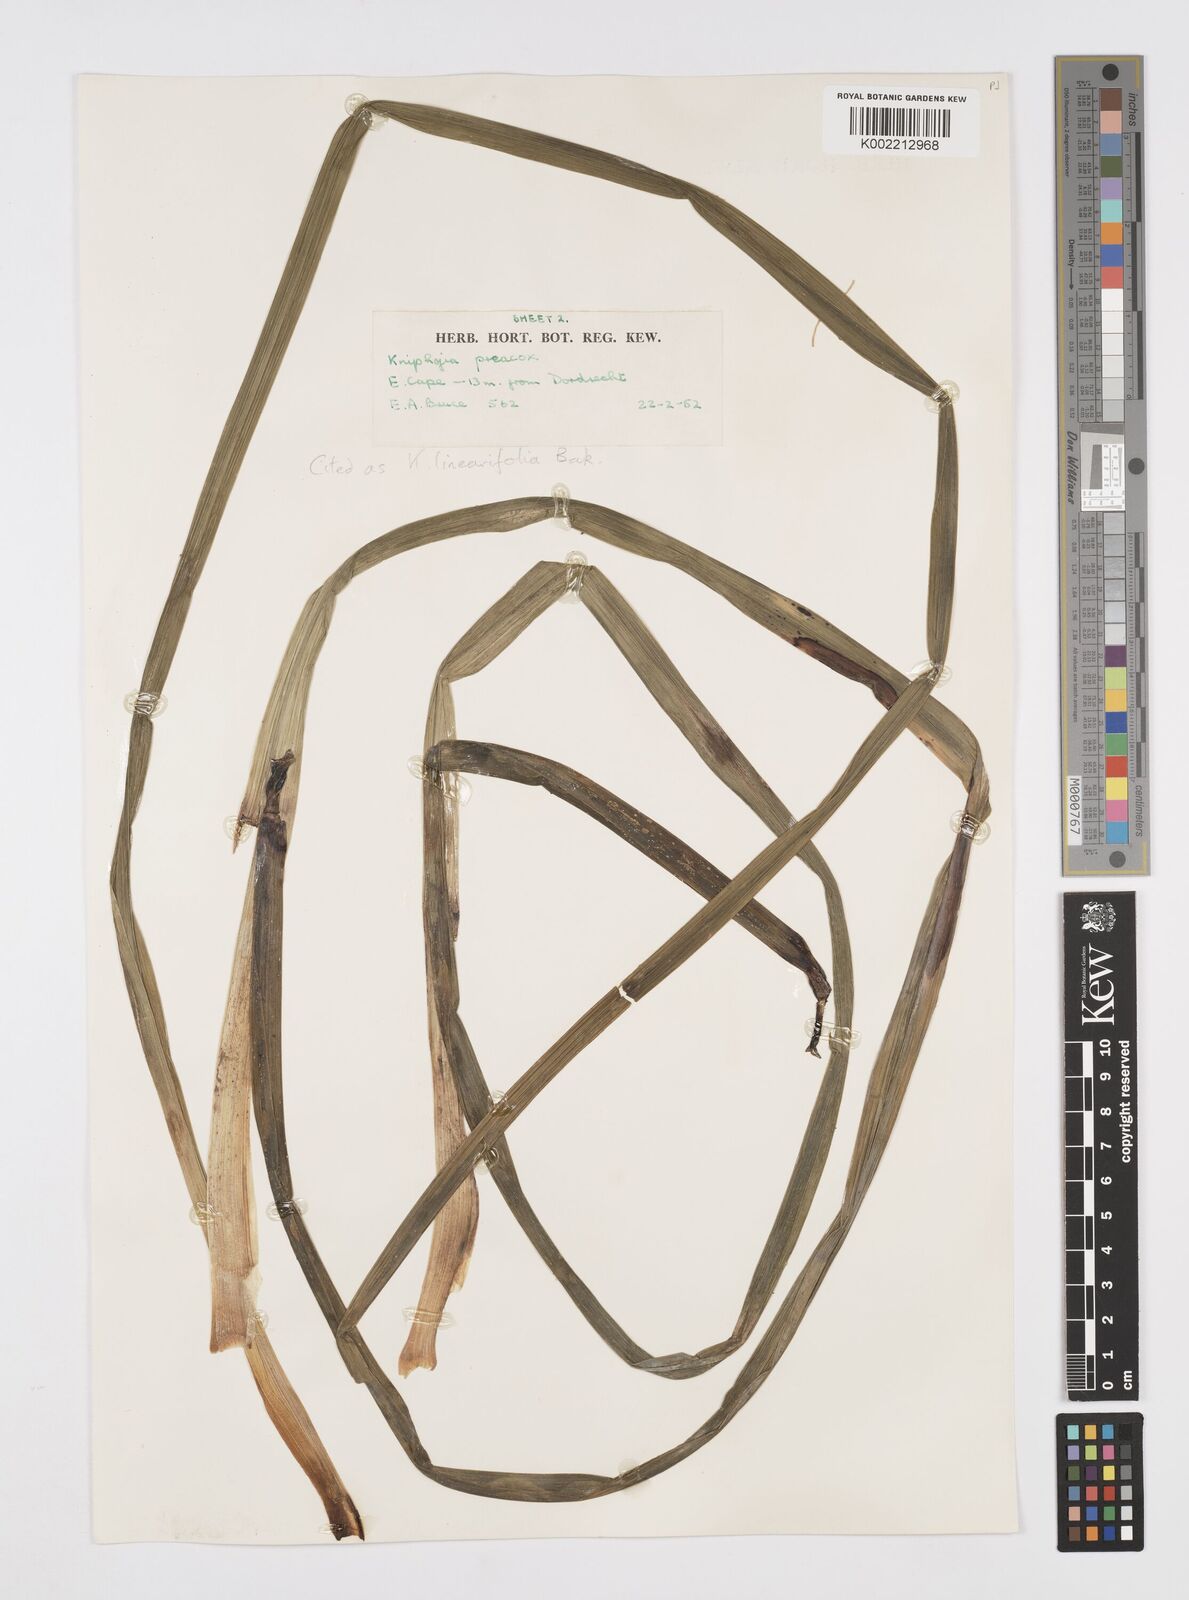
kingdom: Plantae
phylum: Tracheophyta
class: Liliopsida
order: Asparagales
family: Asphodelaceae
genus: Kniphofia
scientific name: Kniphofia linearifolia
